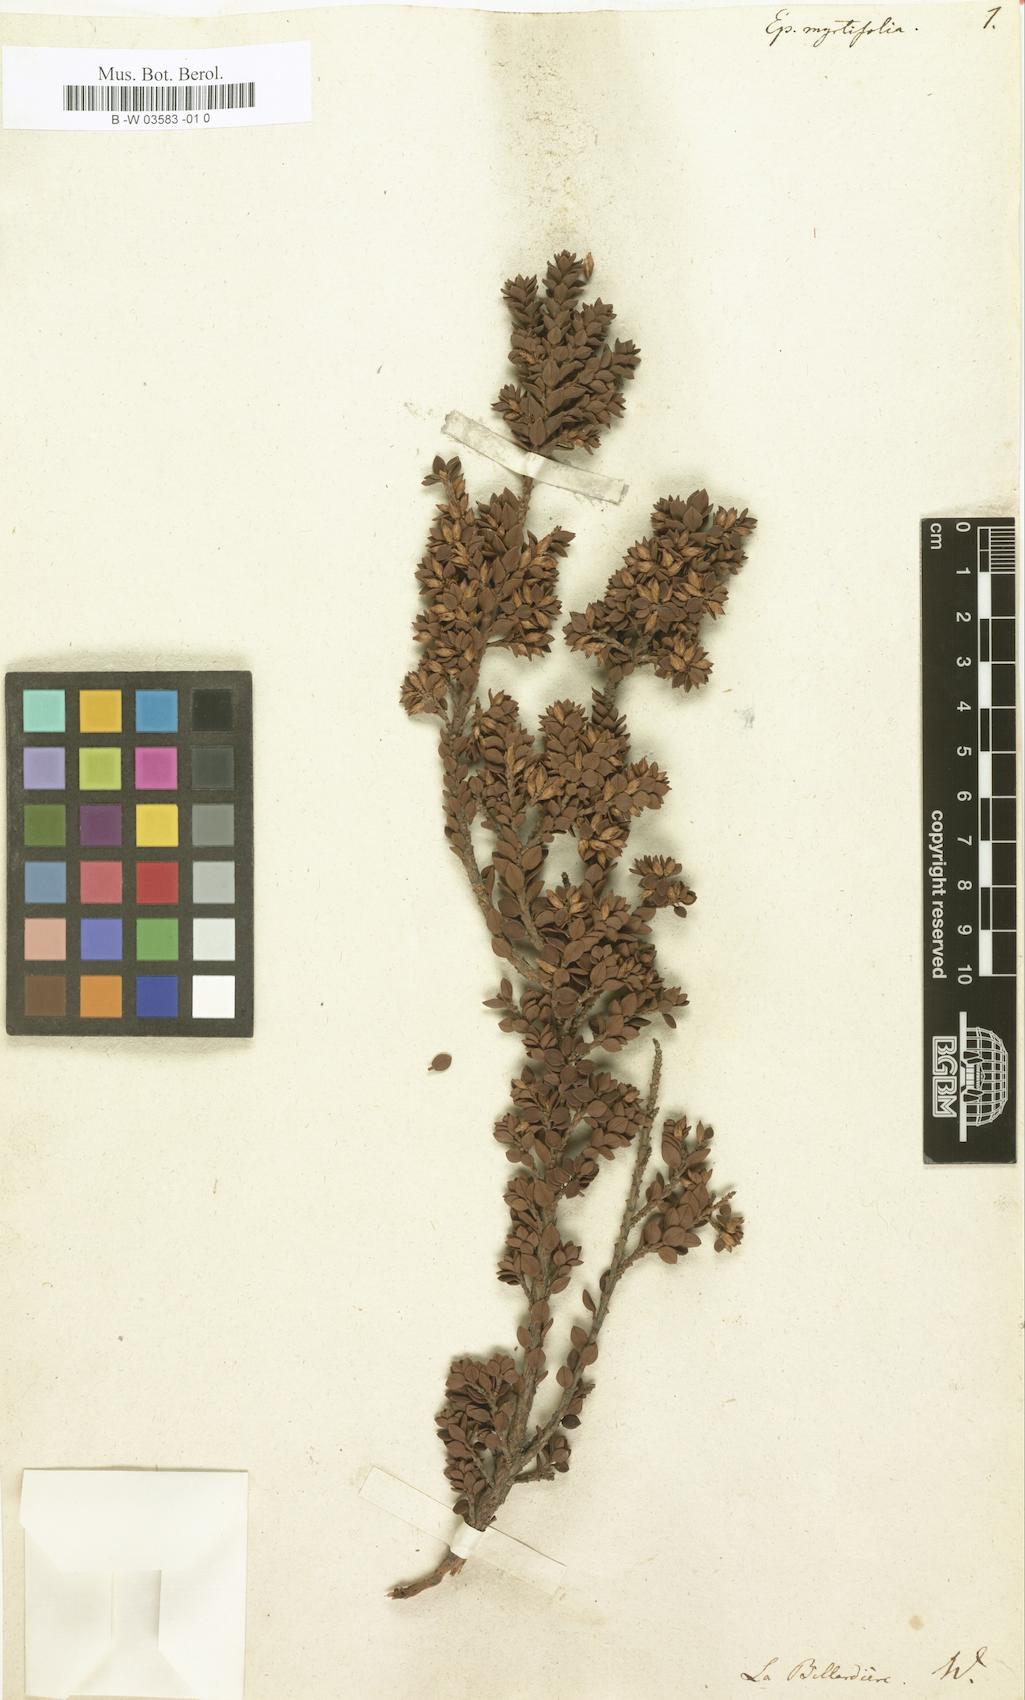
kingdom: Plantae
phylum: Tracheophyta
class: Magnoliopsida
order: Ericales
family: Ericaceae
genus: Epacris
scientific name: Epacris myrtifolia
